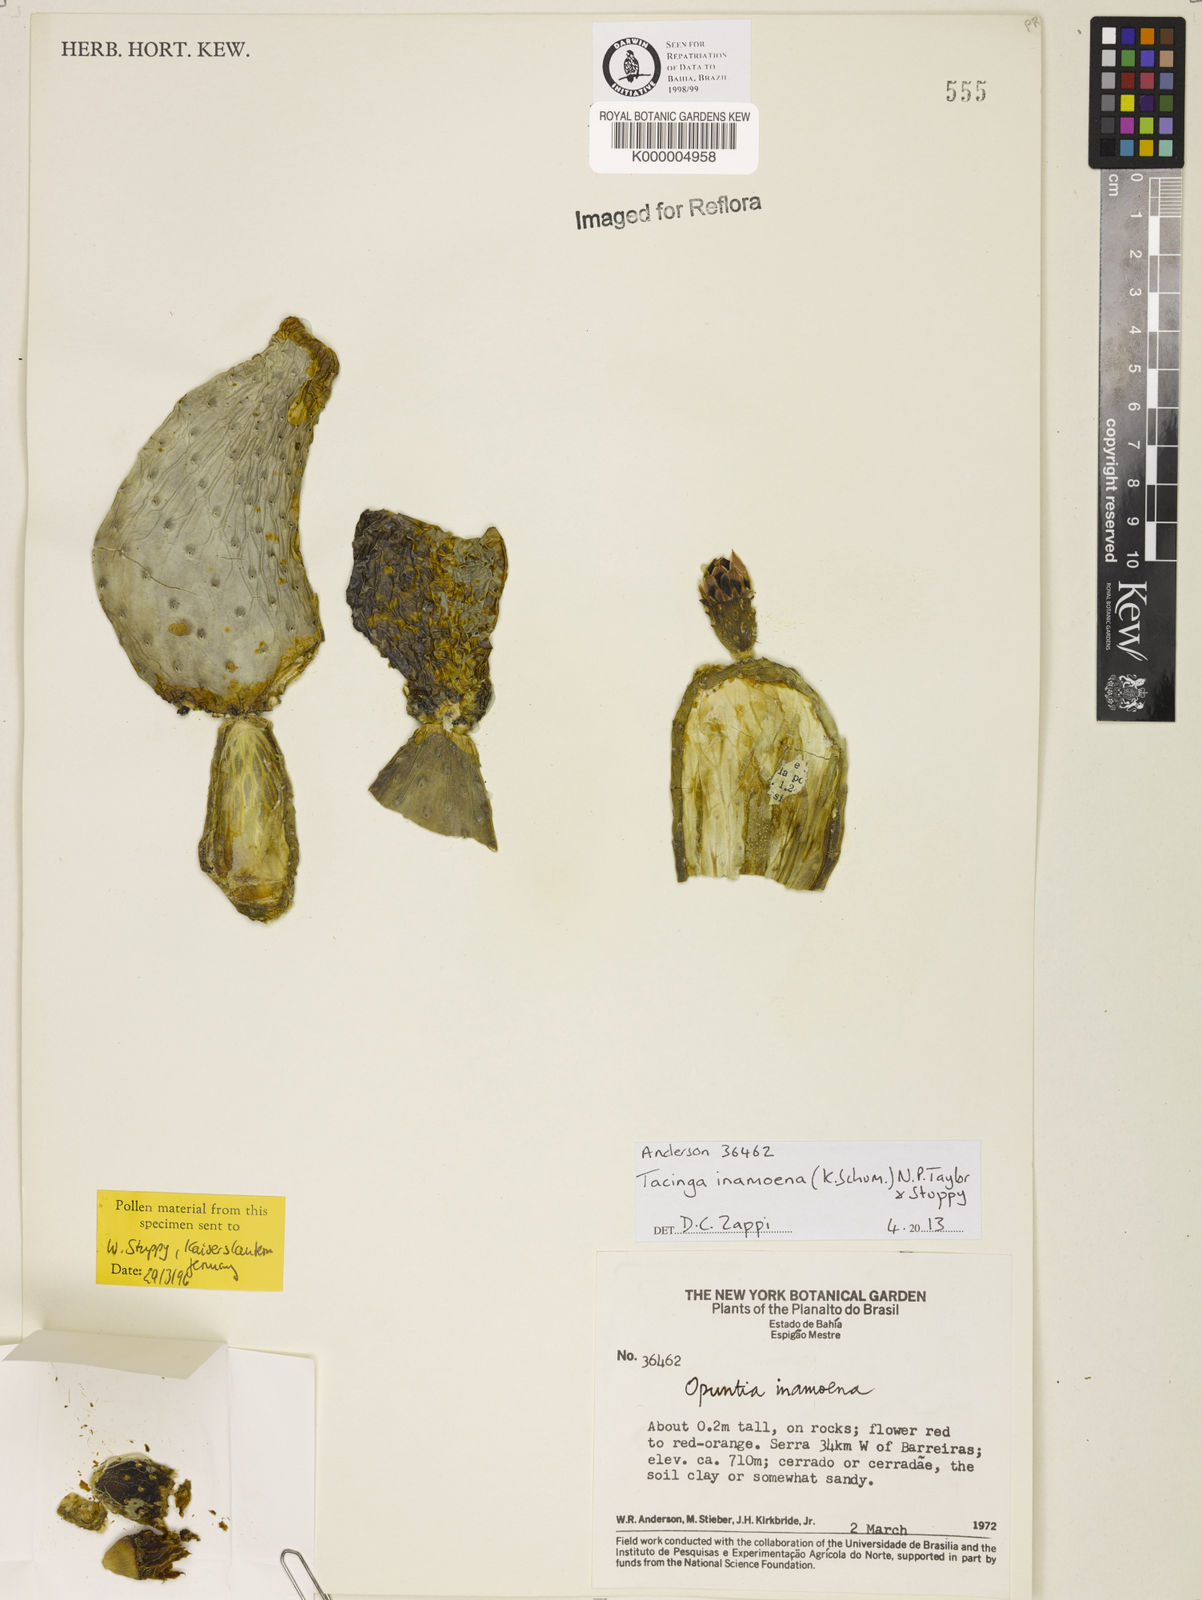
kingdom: Plantae
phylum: Tracheophyta
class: Magnoliopsida
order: Caryophyllales
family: Cactaceae
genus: Tacinga
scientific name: Tacinga inamoena
